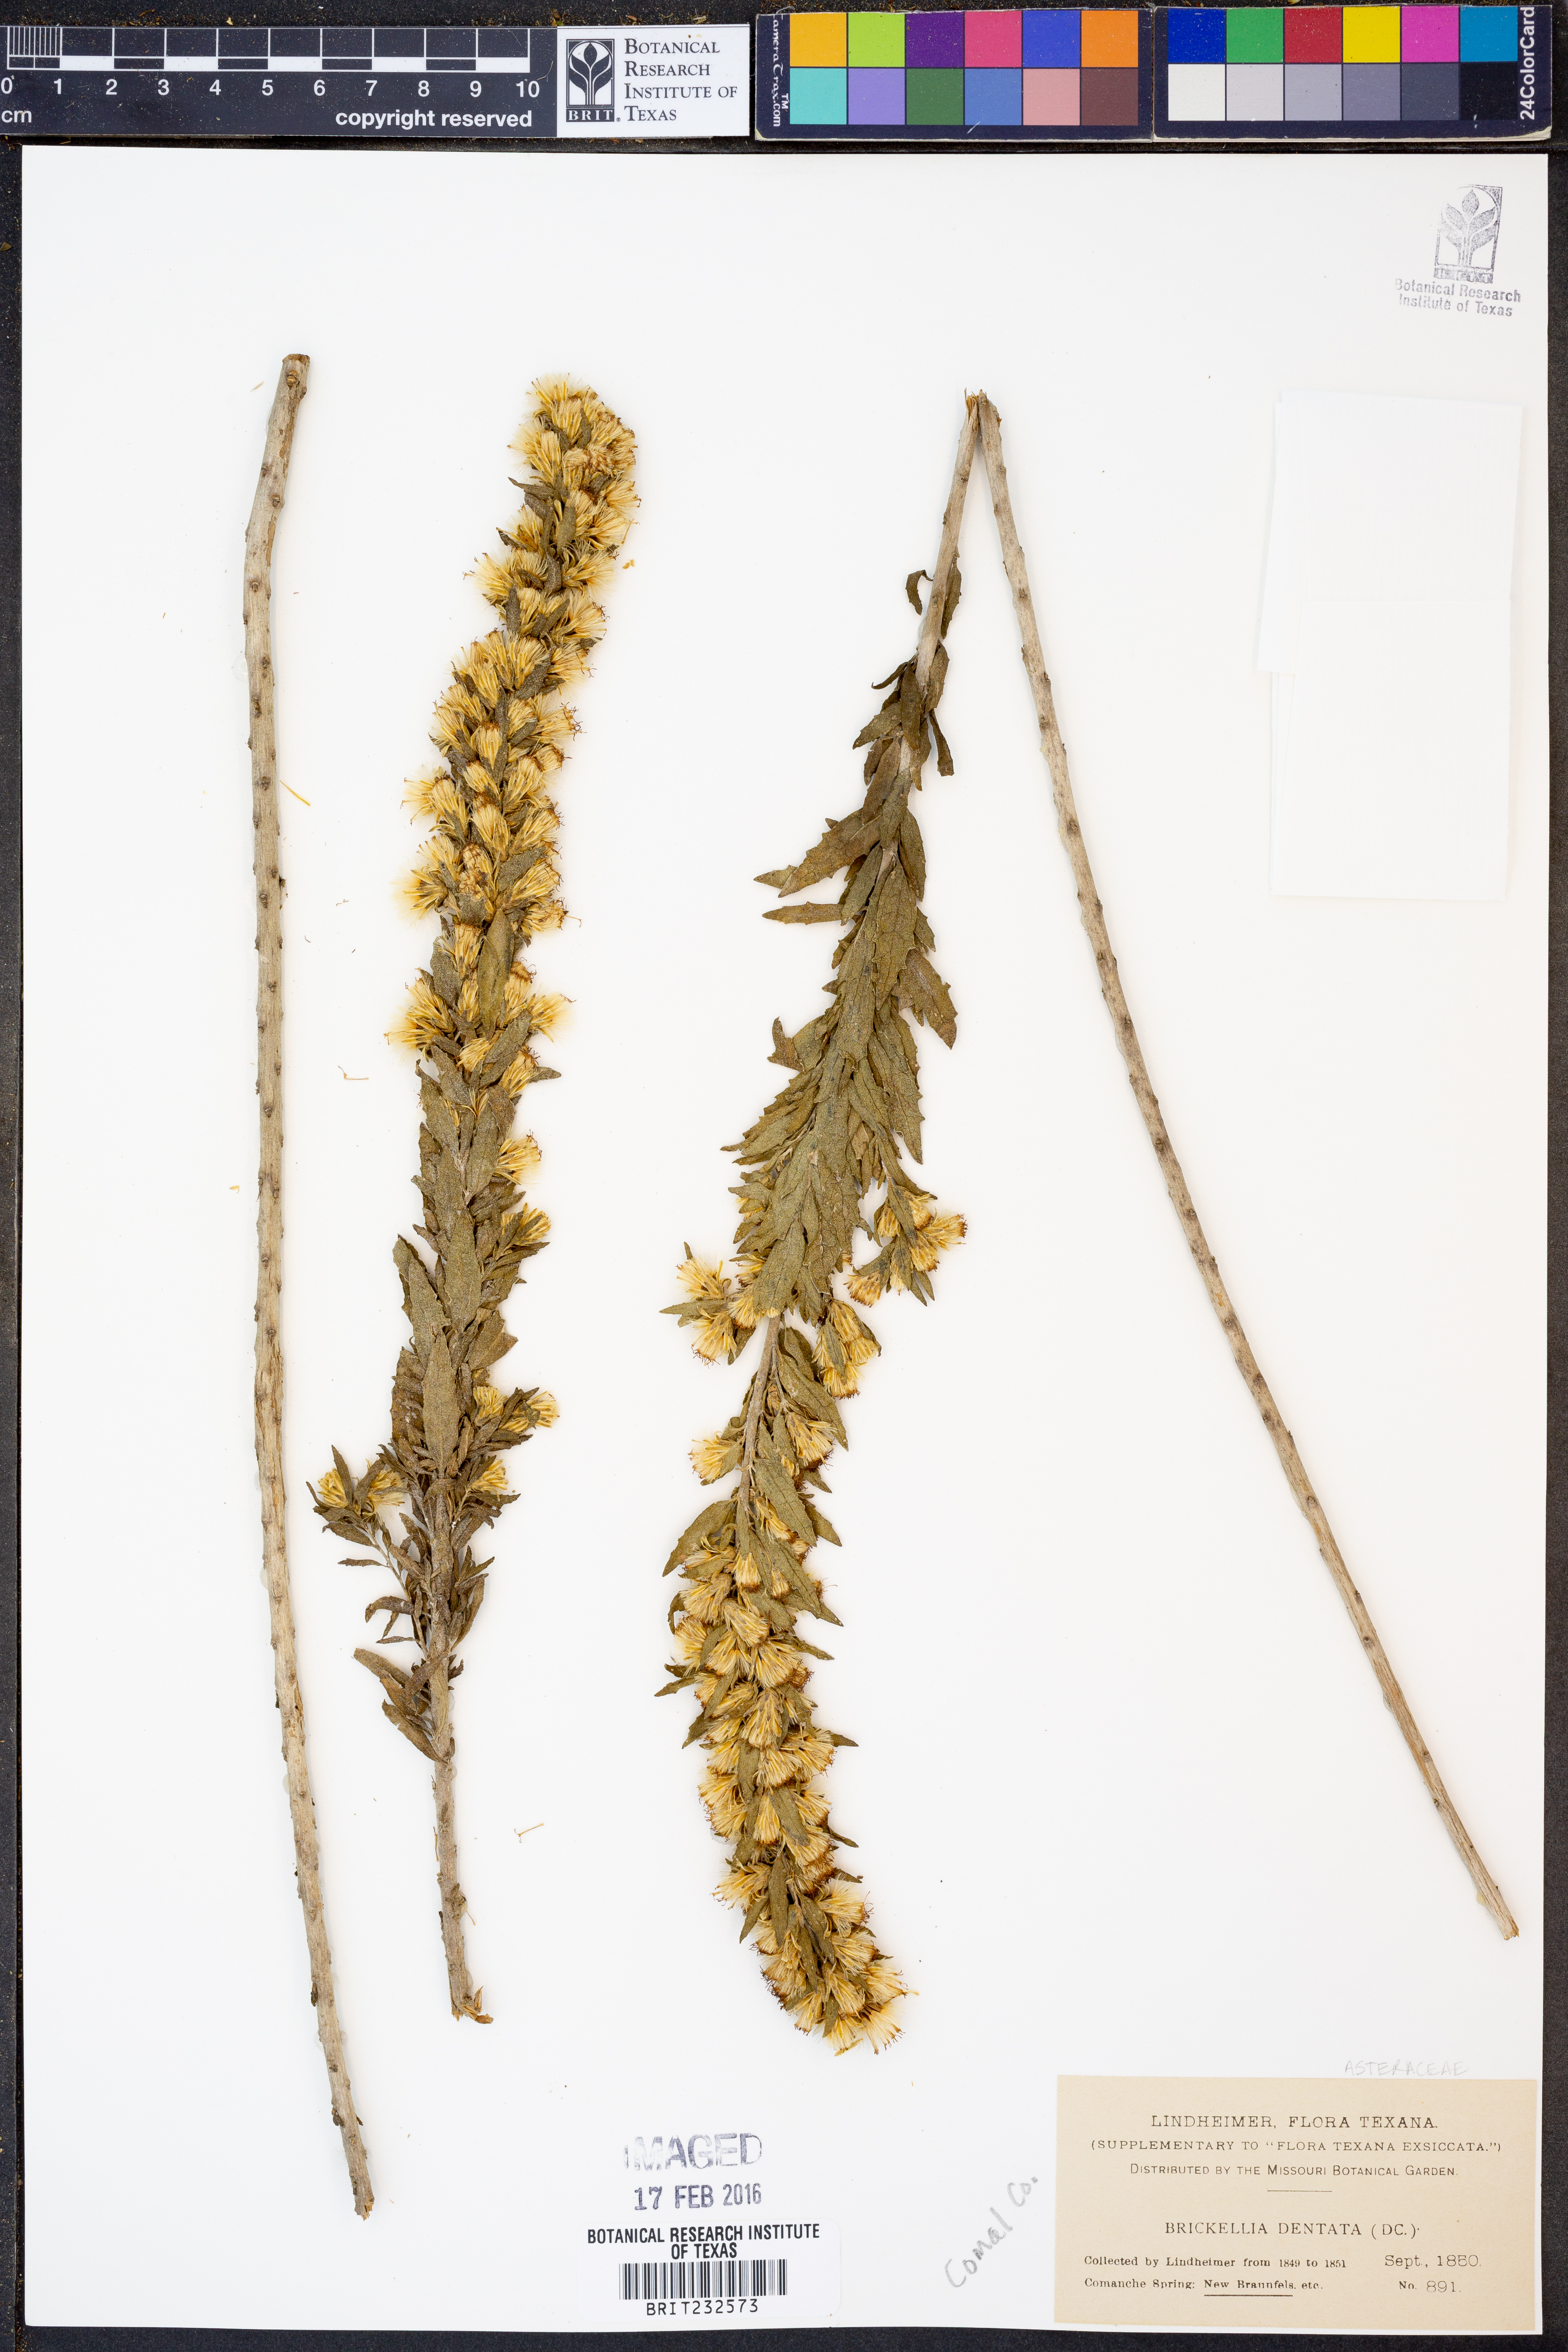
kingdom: Plantae
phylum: Tracheophyta
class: Magnoliopsida
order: Asterales
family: Asteraceae
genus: Brickellia
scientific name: Brickellia dentata
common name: Leafy brickellbush
